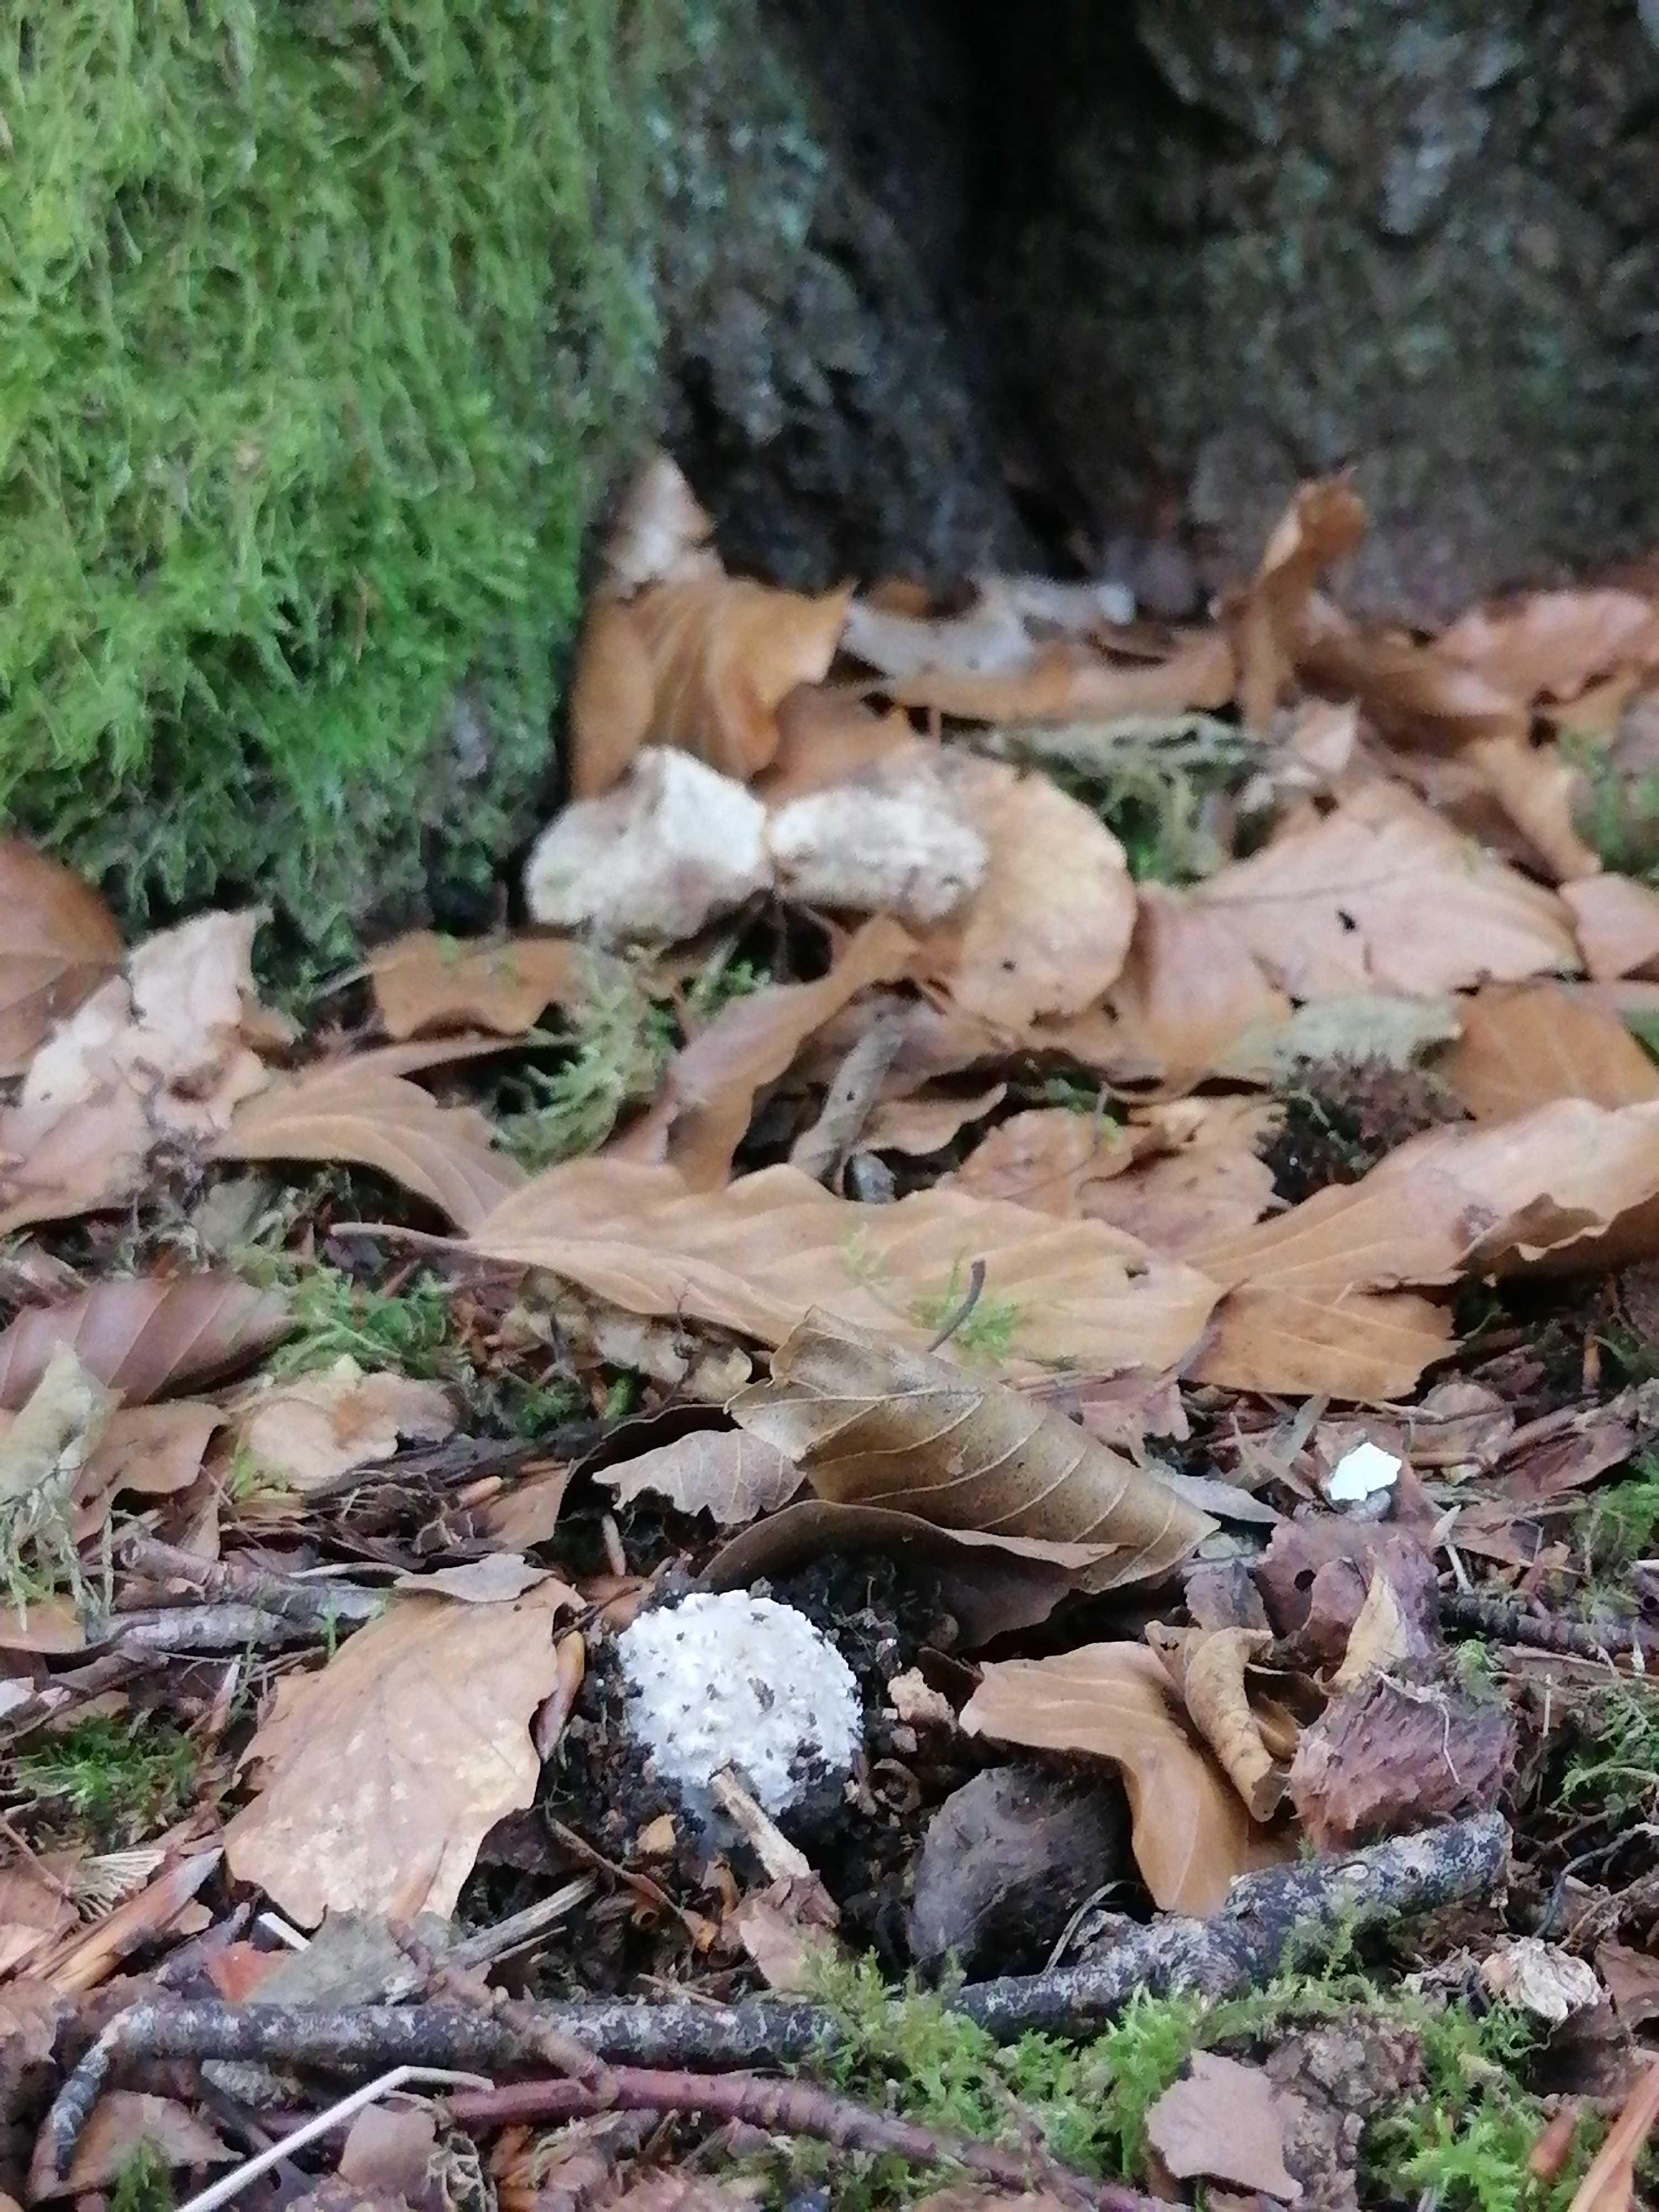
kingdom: Fungi
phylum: Basidiomycota
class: Agaricomycetes
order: Agaricales
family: Amanitaceae
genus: Amanita
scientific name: Amanita
